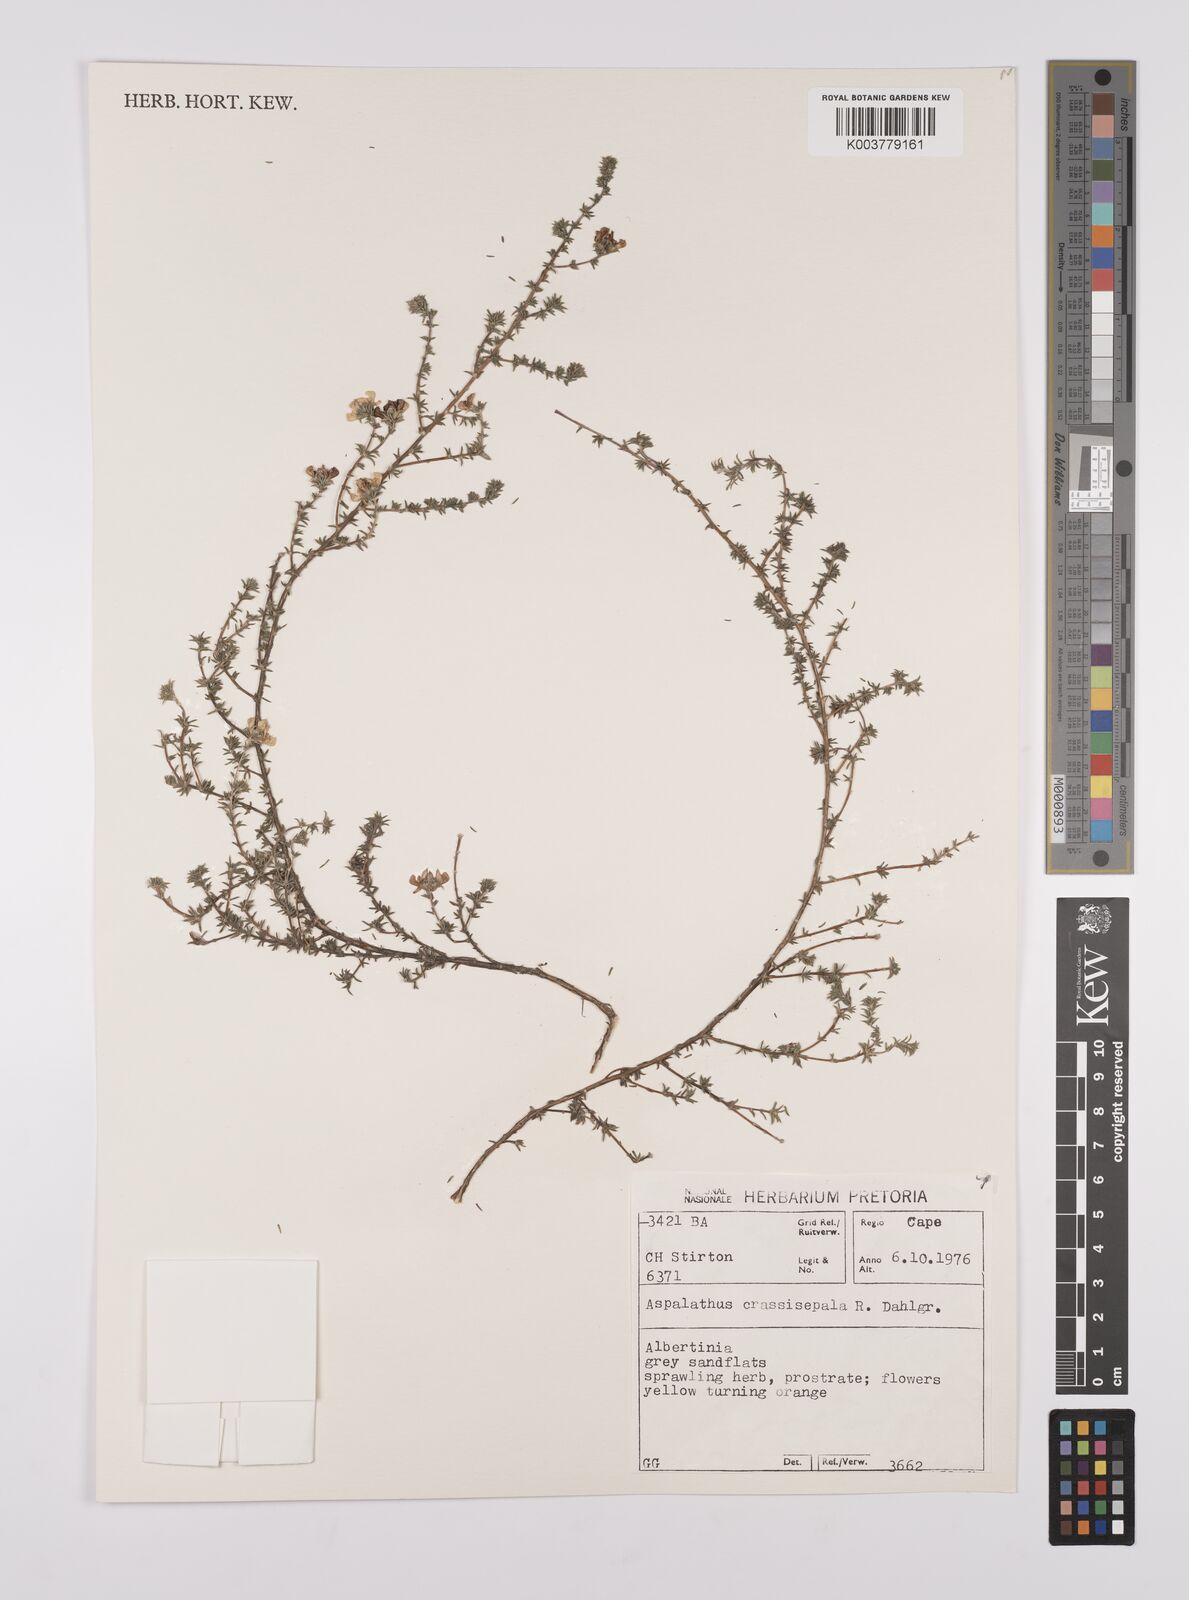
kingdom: Plantae
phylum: Tracheophyta
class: Magnoliopsida
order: Fabales
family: Fabaceae
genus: Aspalathus
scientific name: Aspalathus crassisepala
